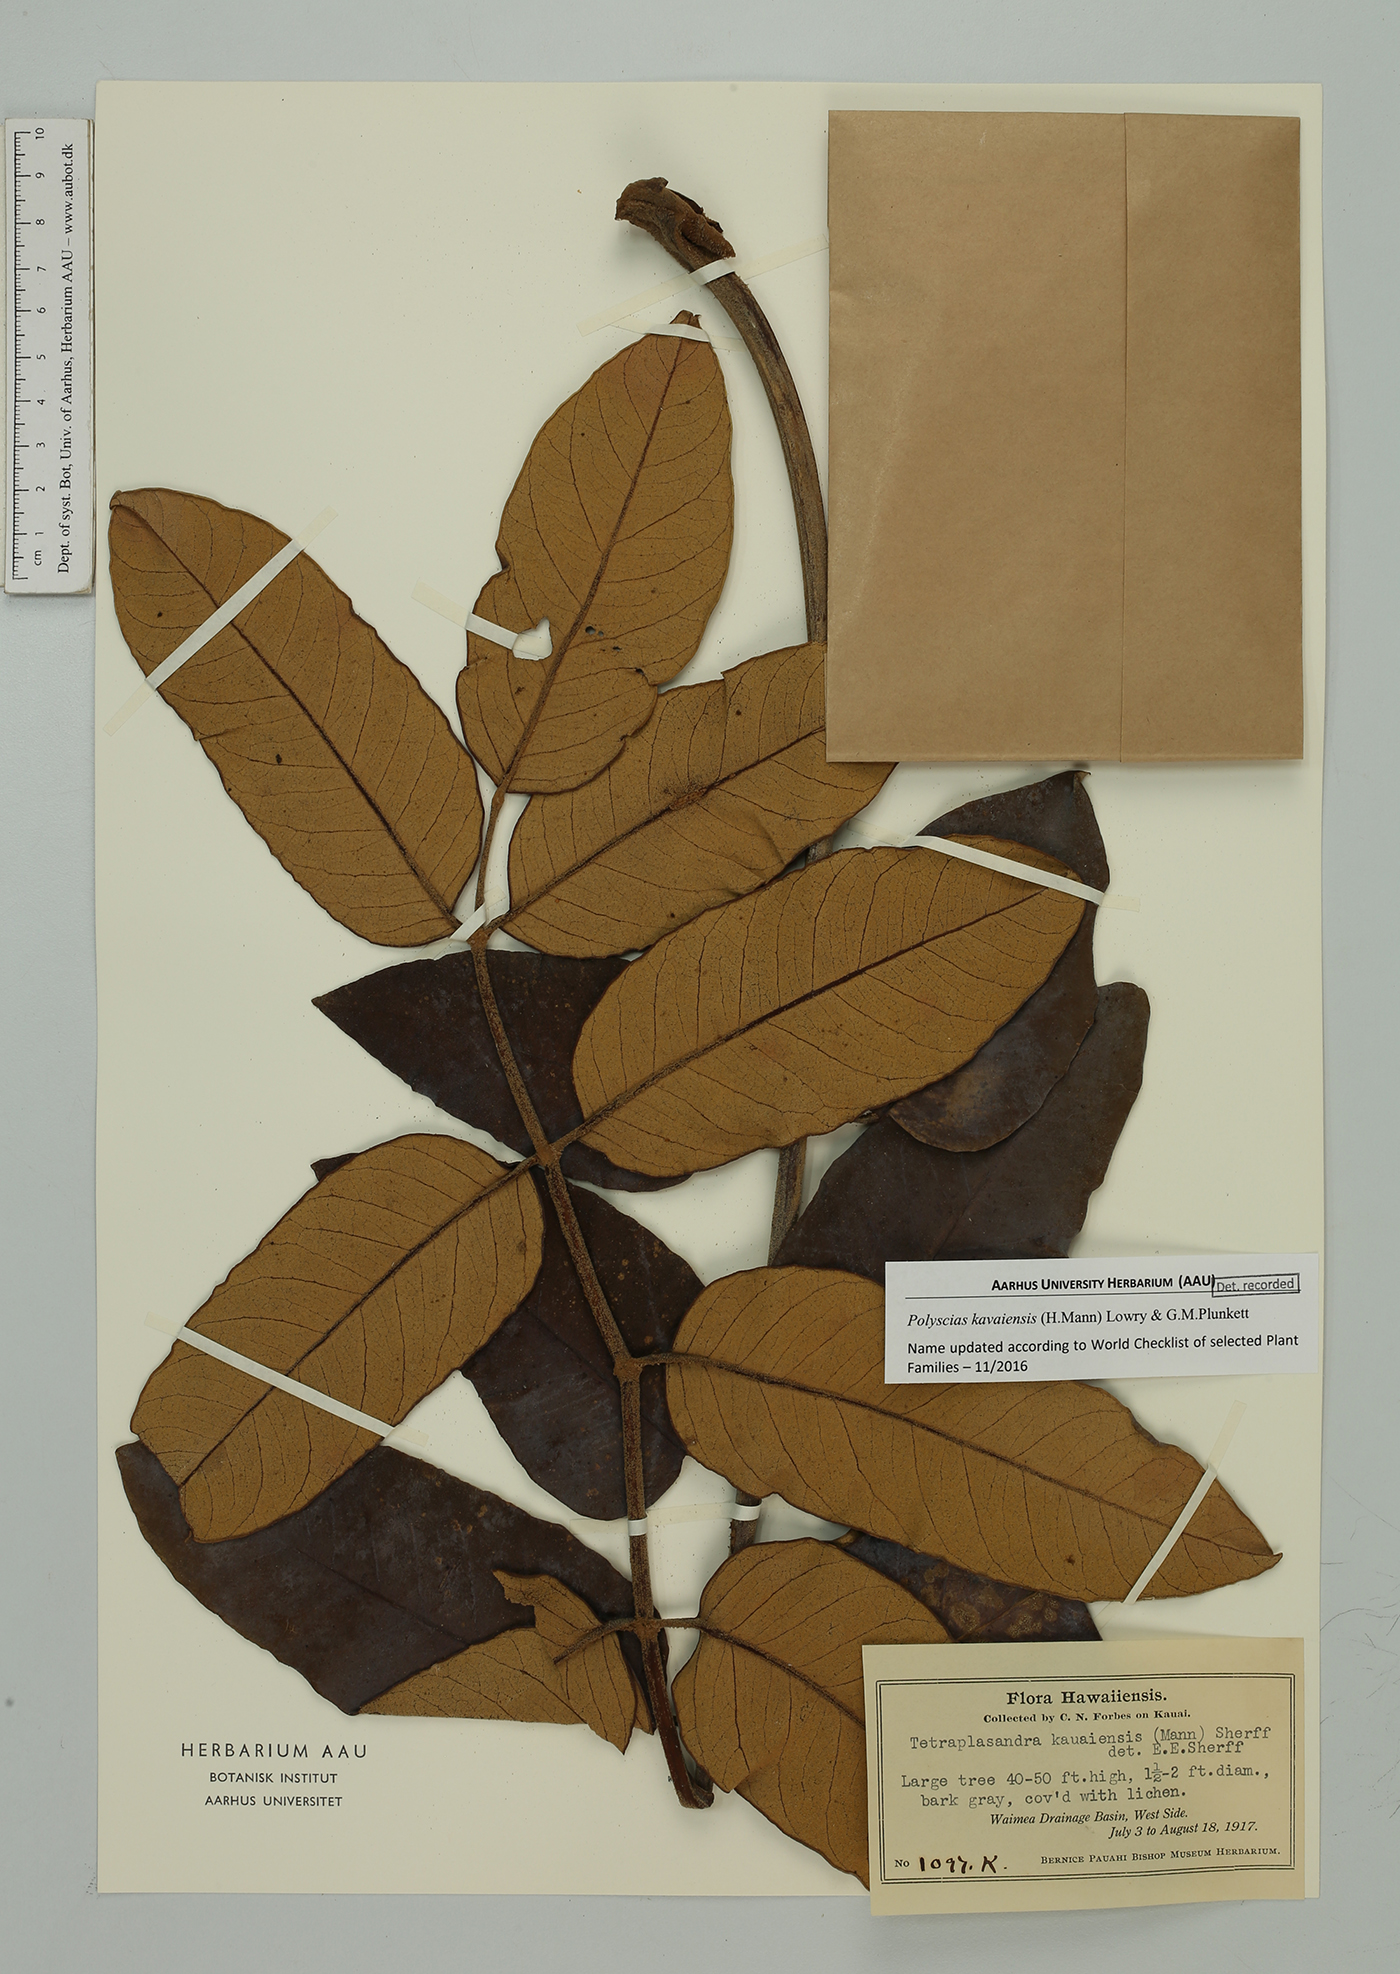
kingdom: Plantae
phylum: Tracheophyta
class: Magnoliopsida
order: Apiales
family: Araliaceae
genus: Polyscias
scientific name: Polyscias kavaiensis
